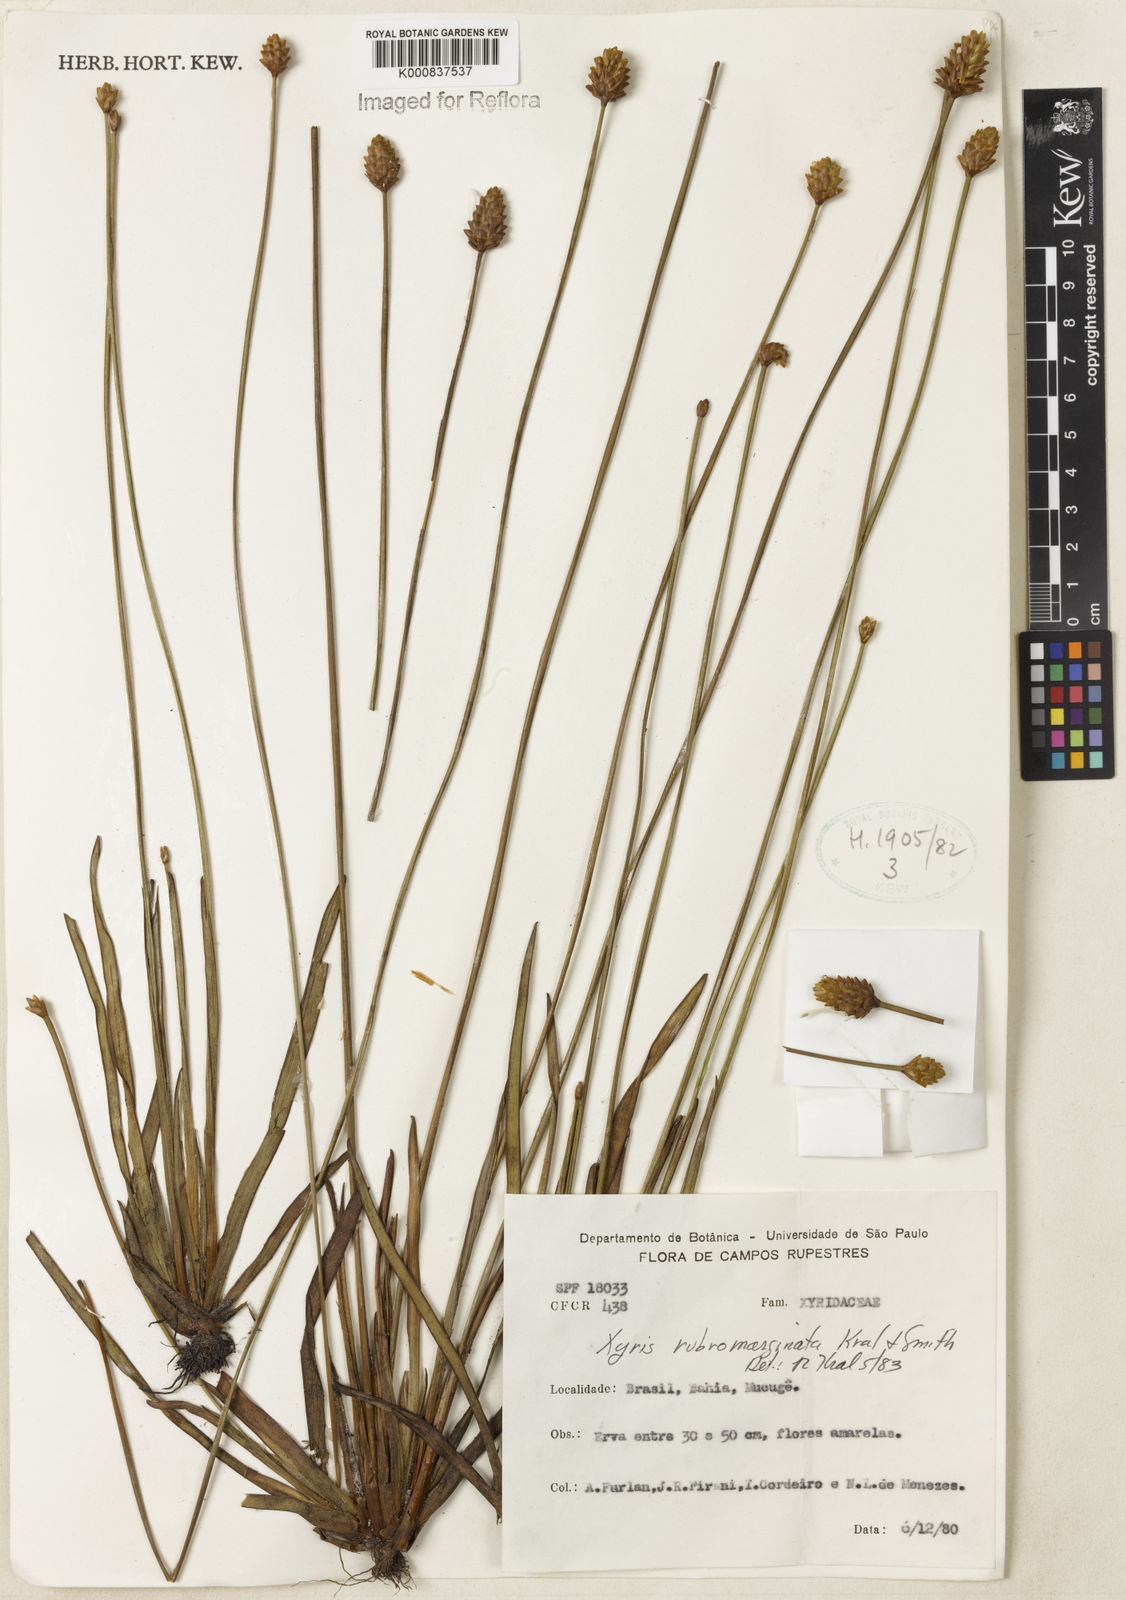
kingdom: Plantae
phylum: Tracheophyta
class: Liliopsida
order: Poales
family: Xyridaceae
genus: Xyris
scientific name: Xyris rubromarginata
